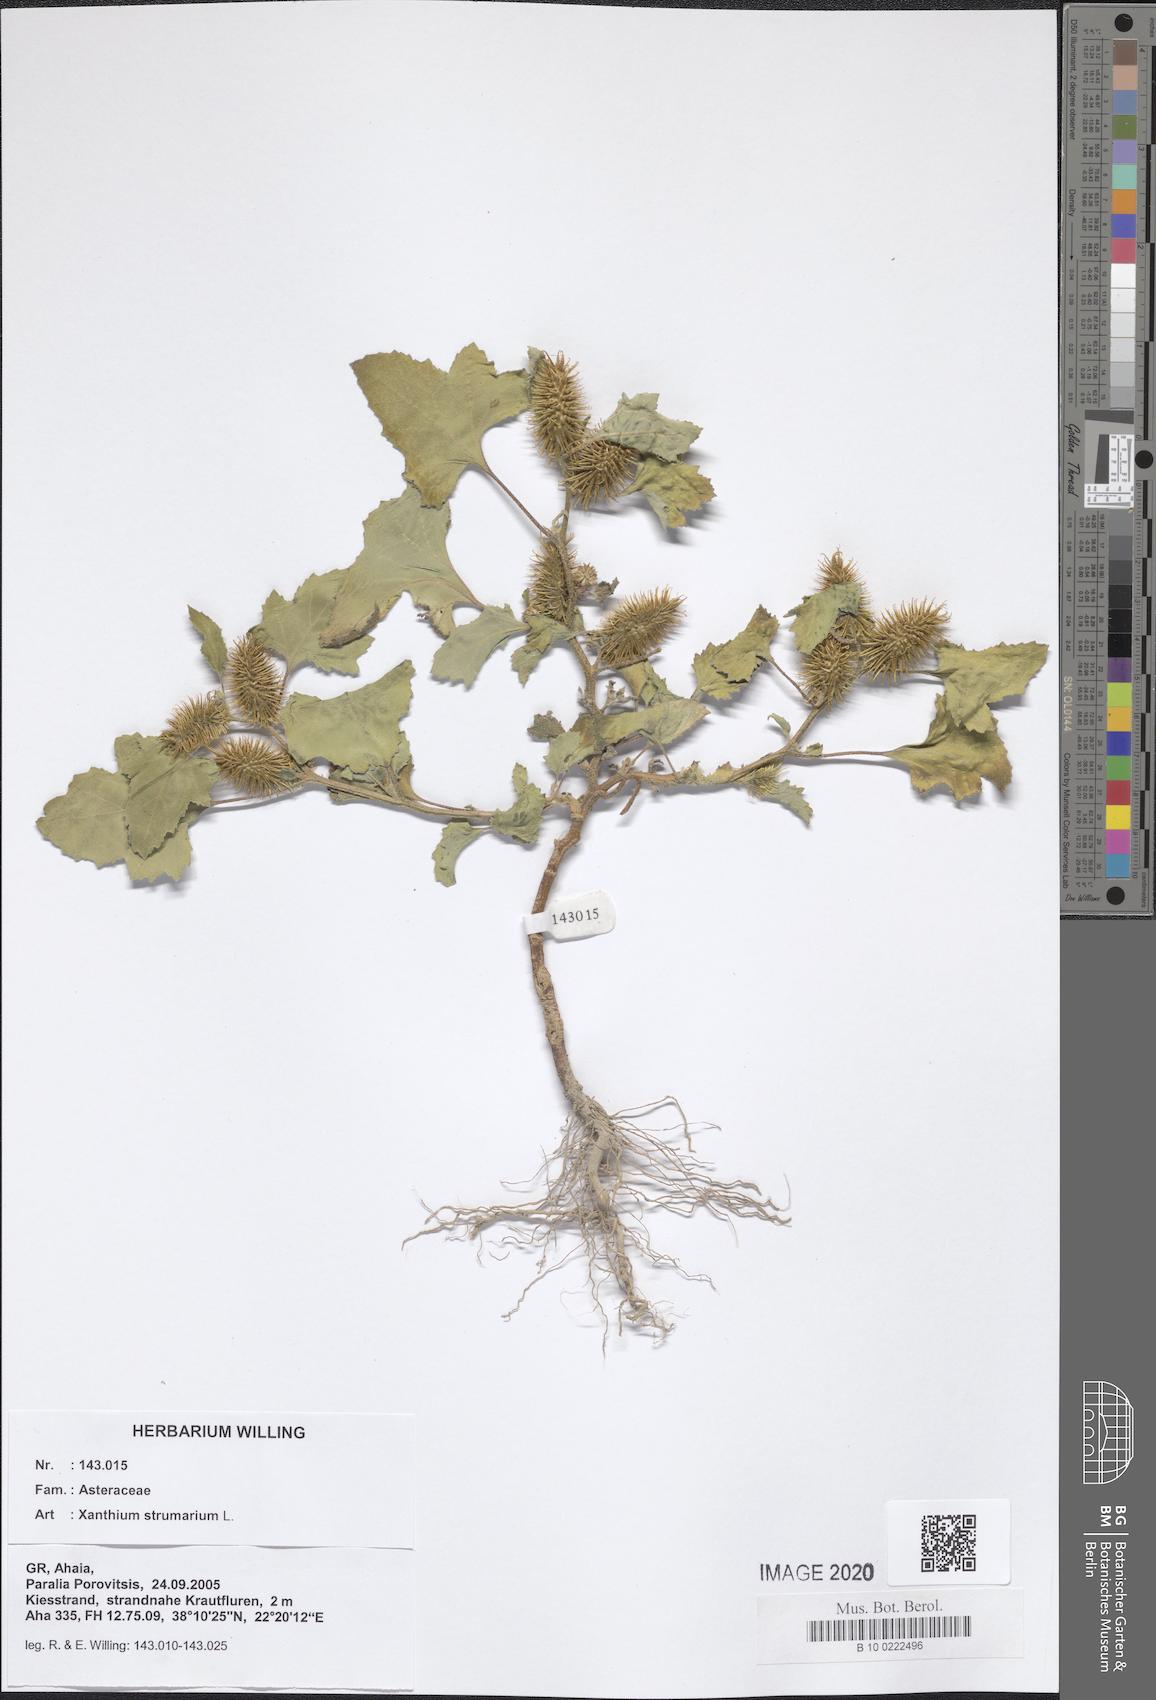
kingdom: Plantae
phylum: Tracheophyta
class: Magnoliopsida
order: Asterales
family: Asteraceae
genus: Xanthium
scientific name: Xanthium strumarium
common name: Rough cocklebur
